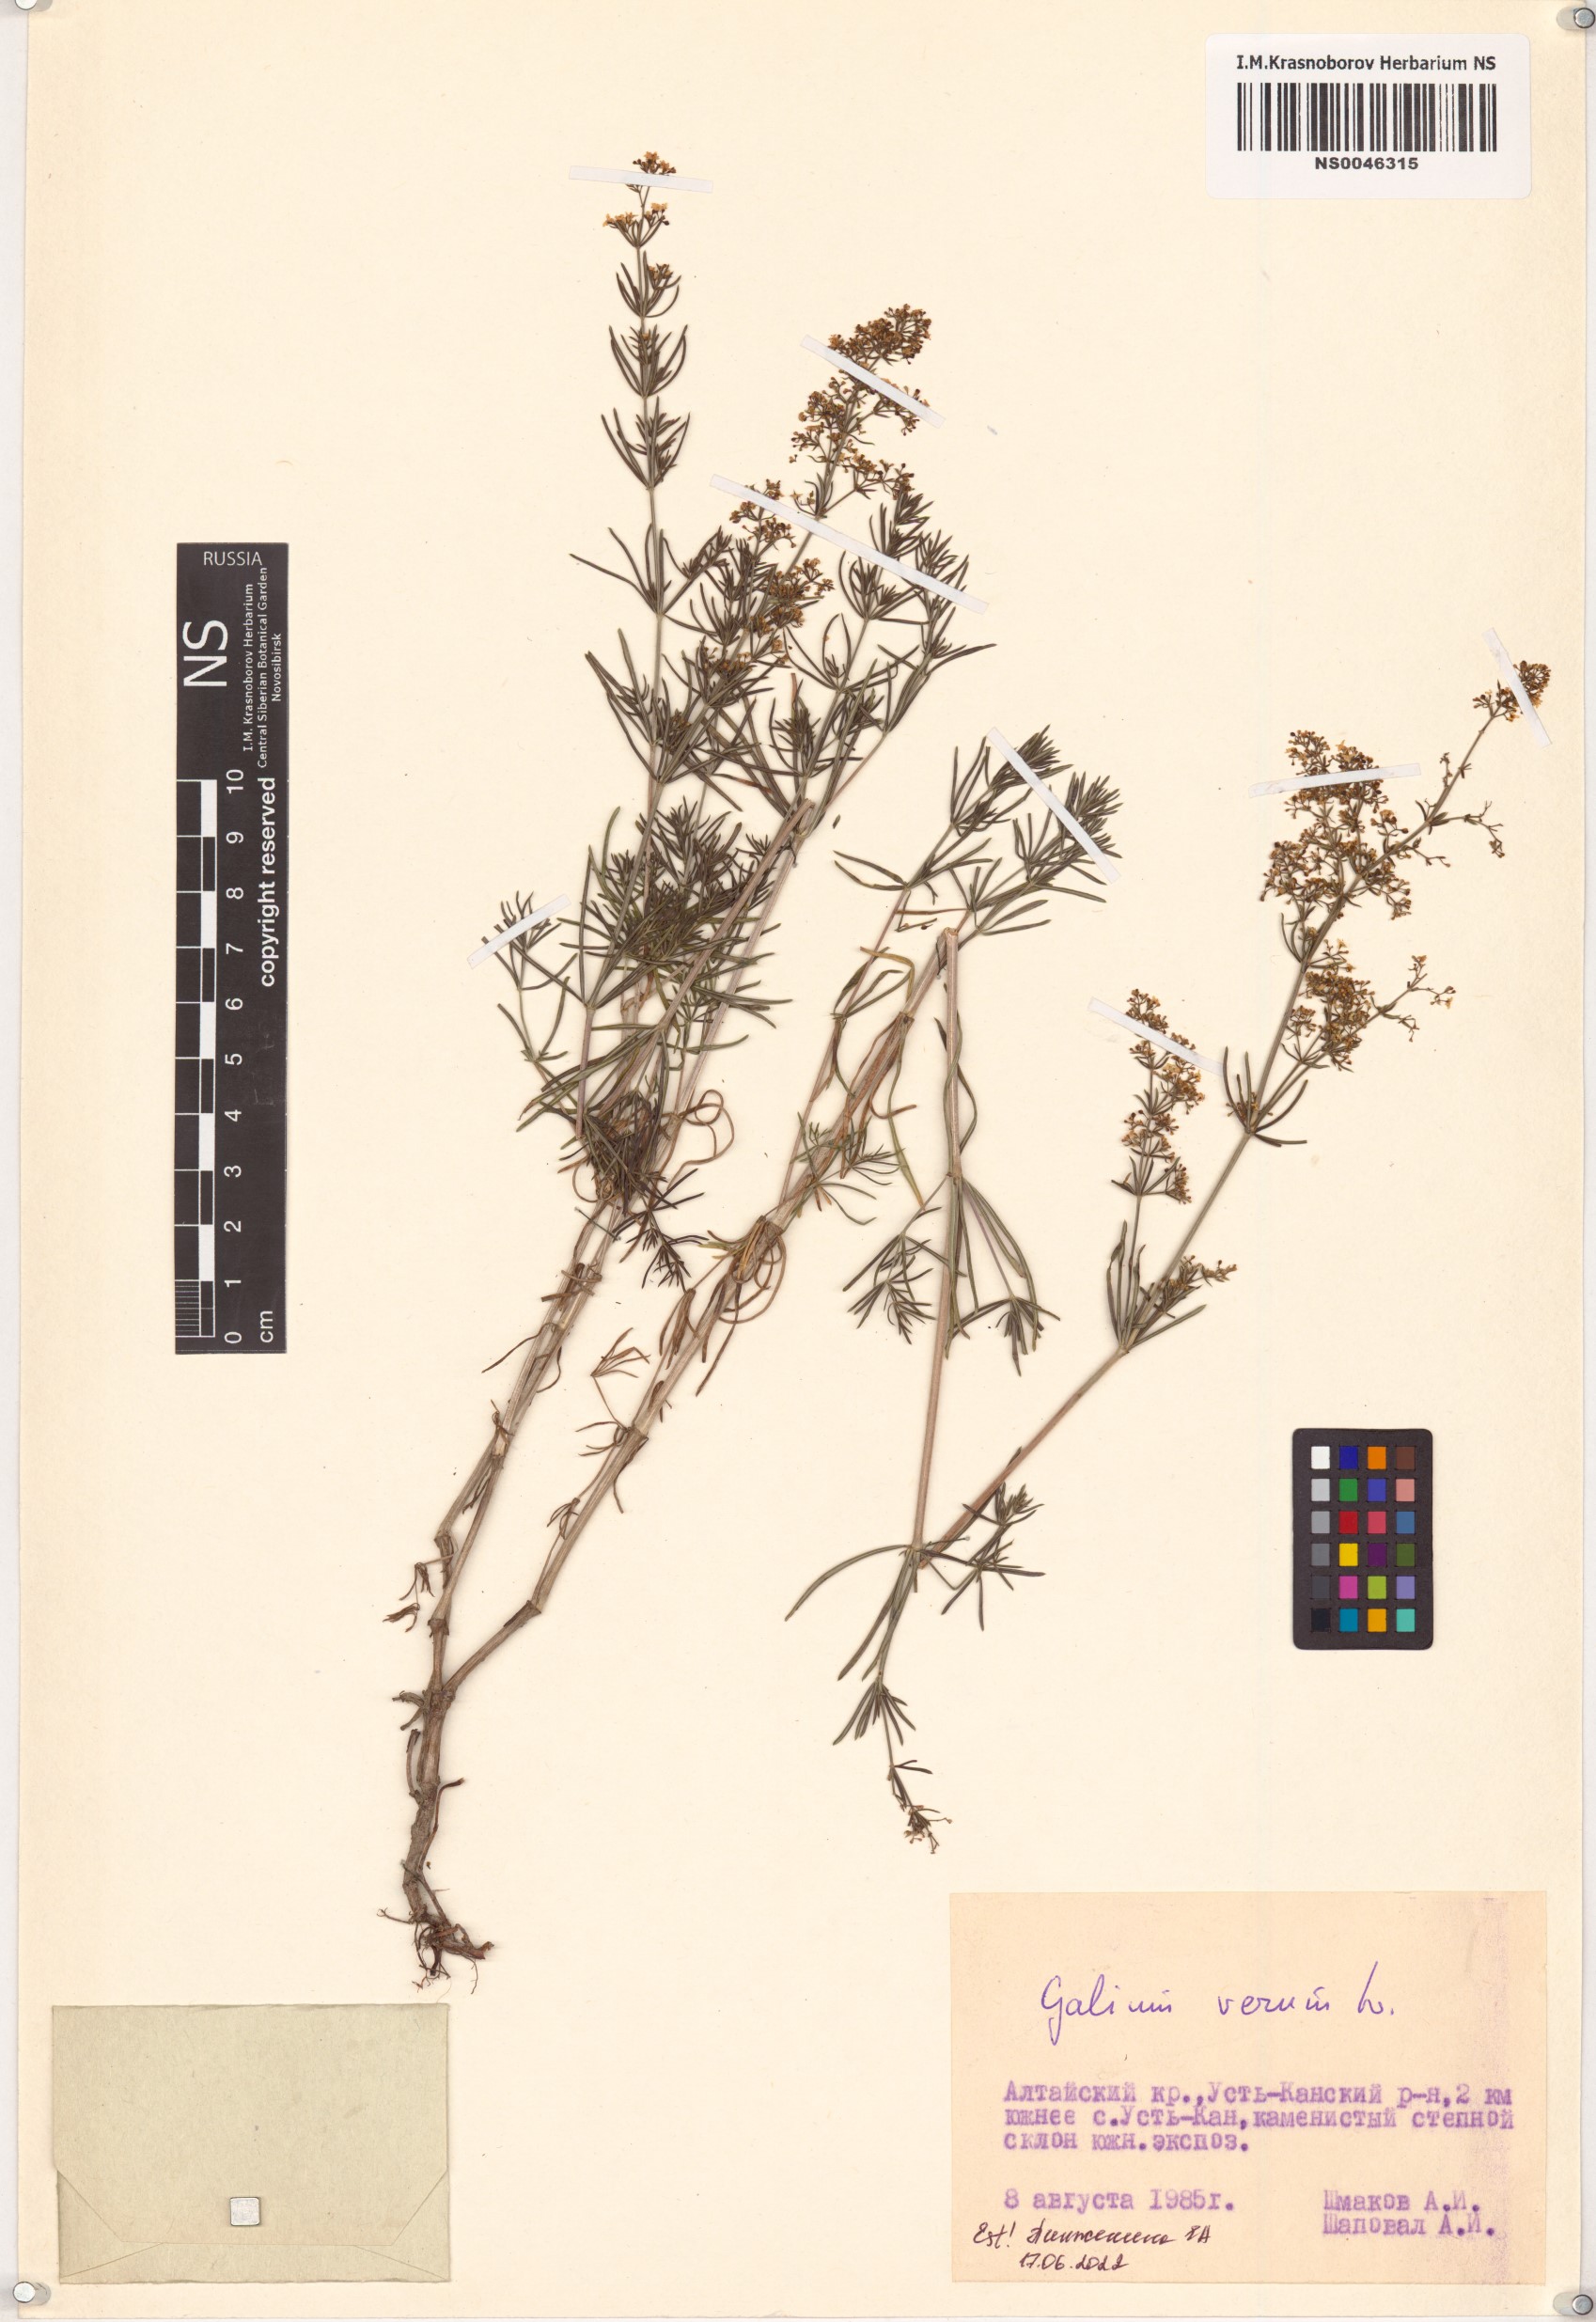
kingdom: Plantae
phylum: Tracheophyta
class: Magnoliopsida
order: Gentianales
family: Rubiaceae
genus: Galium
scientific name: Galium verum
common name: Lady's bedstraw
